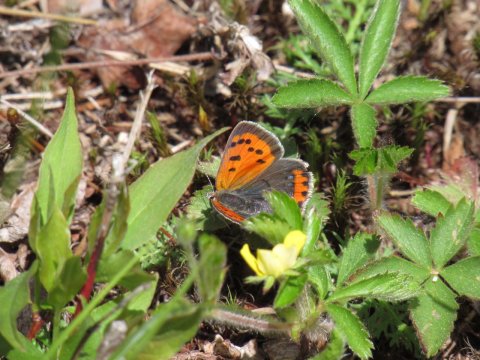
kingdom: Animalia
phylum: Arthropoda
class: Insecta
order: Lepidoptera
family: Lycaenidae
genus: Lycaena
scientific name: Lycaena phlaeas
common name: American Copper
